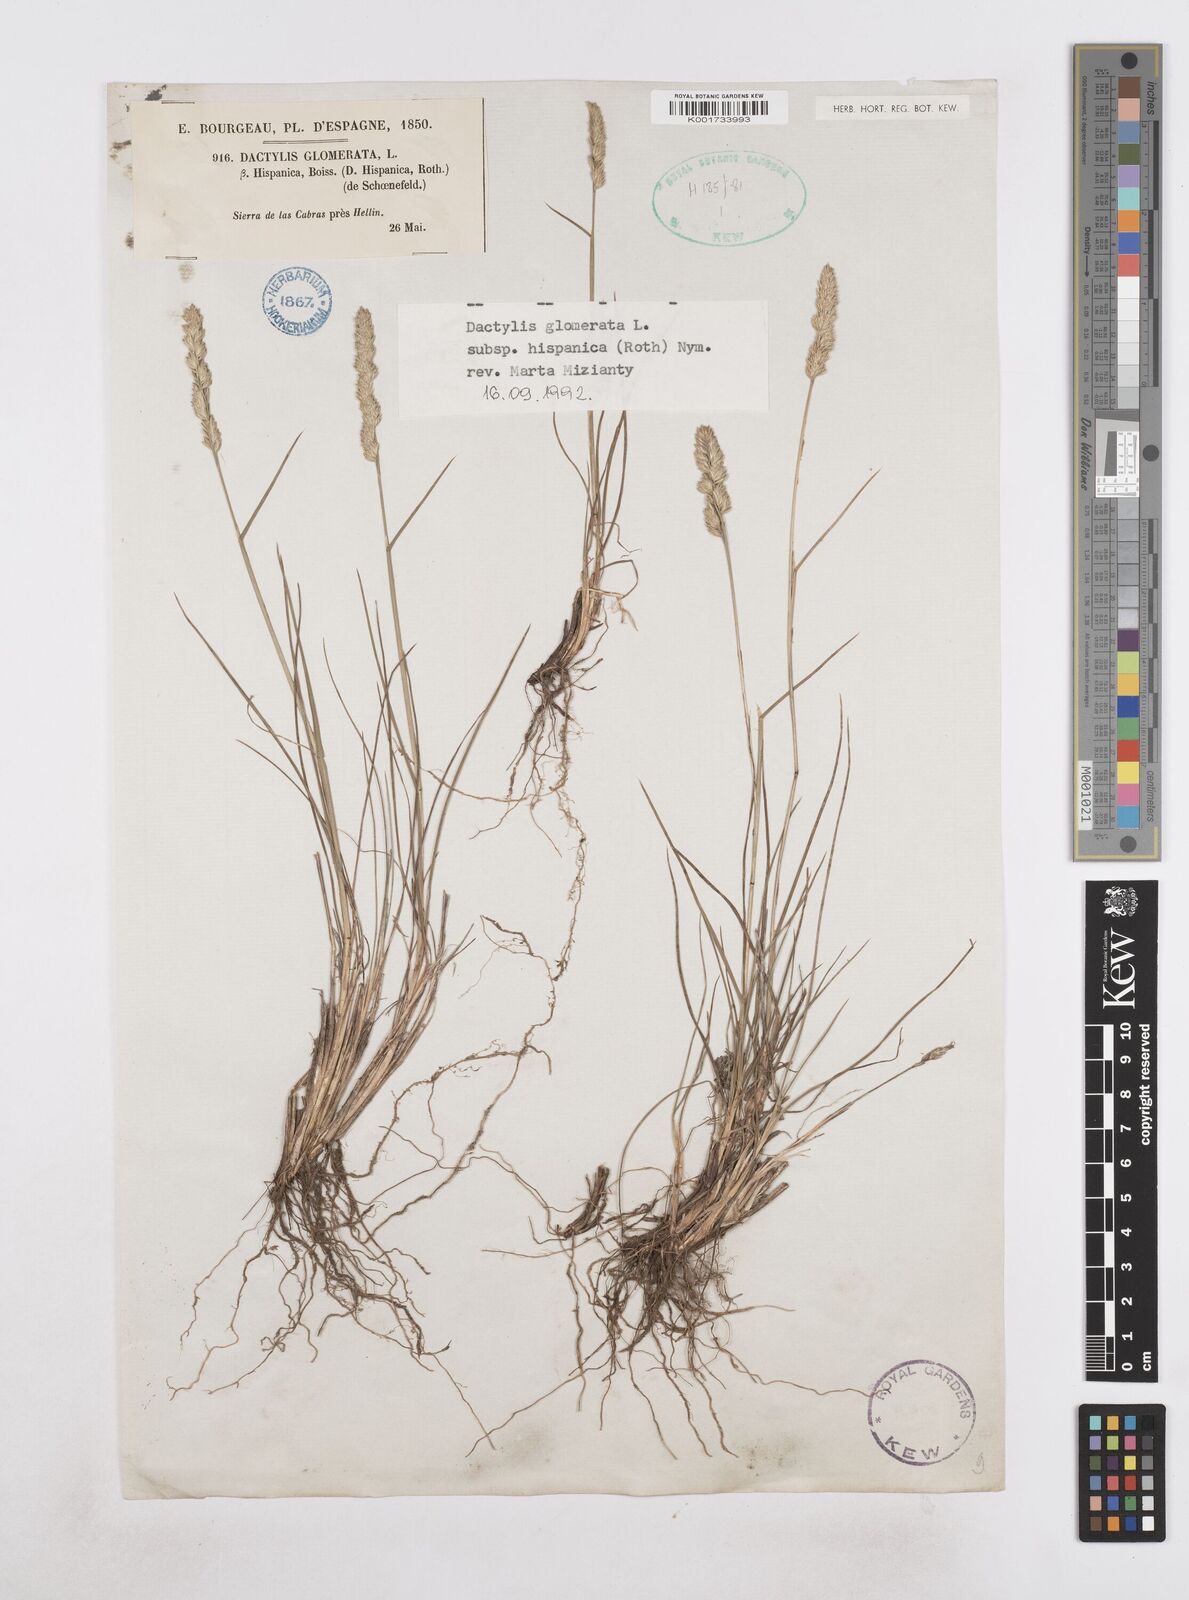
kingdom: Plantae
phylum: Tracheophyta
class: Liliopsida
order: Poales
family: Poaceae
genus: Dactylis
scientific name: Dactylis glomerata
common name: Orchardgrass
